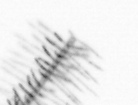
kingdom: Chromista
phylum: Ochrophyta
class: Bacillariophyceae
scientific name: Bacillariophyceae
